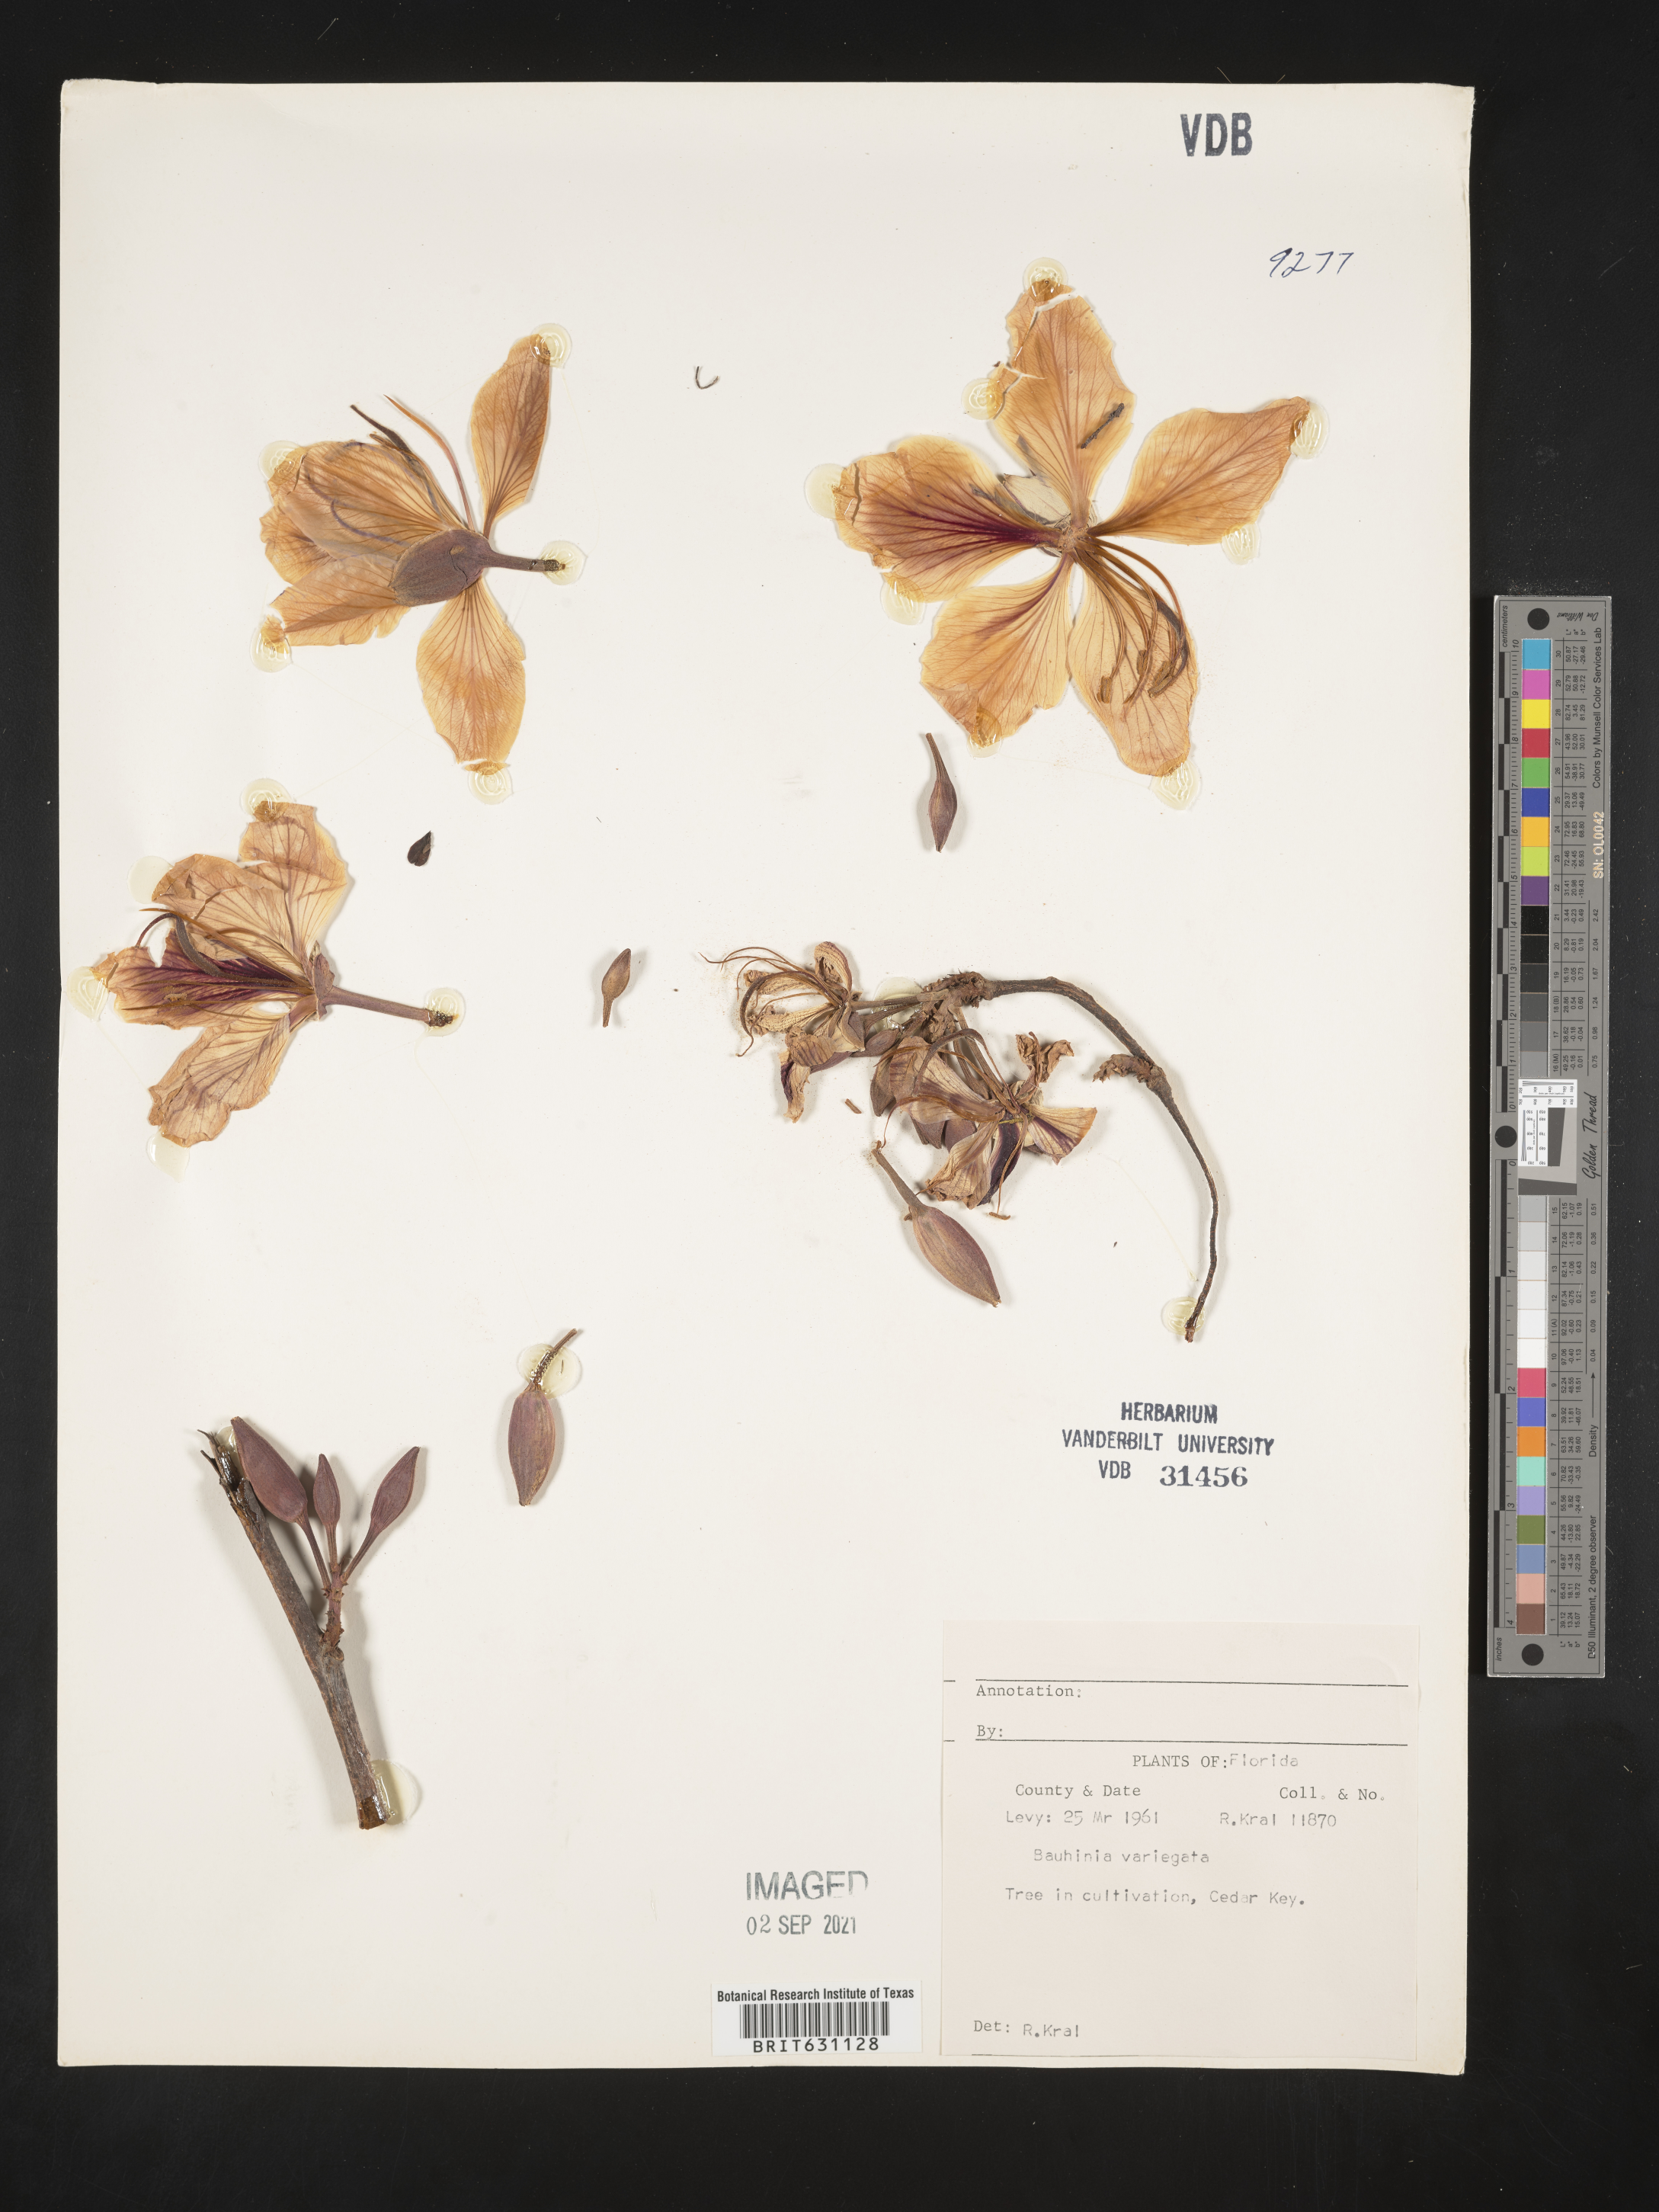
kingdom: Plantae
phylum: Tracheophyta
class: Magnoliopsida
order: Fabales
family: Fabaceae
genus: Bauhinia
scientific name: Bauhinia
